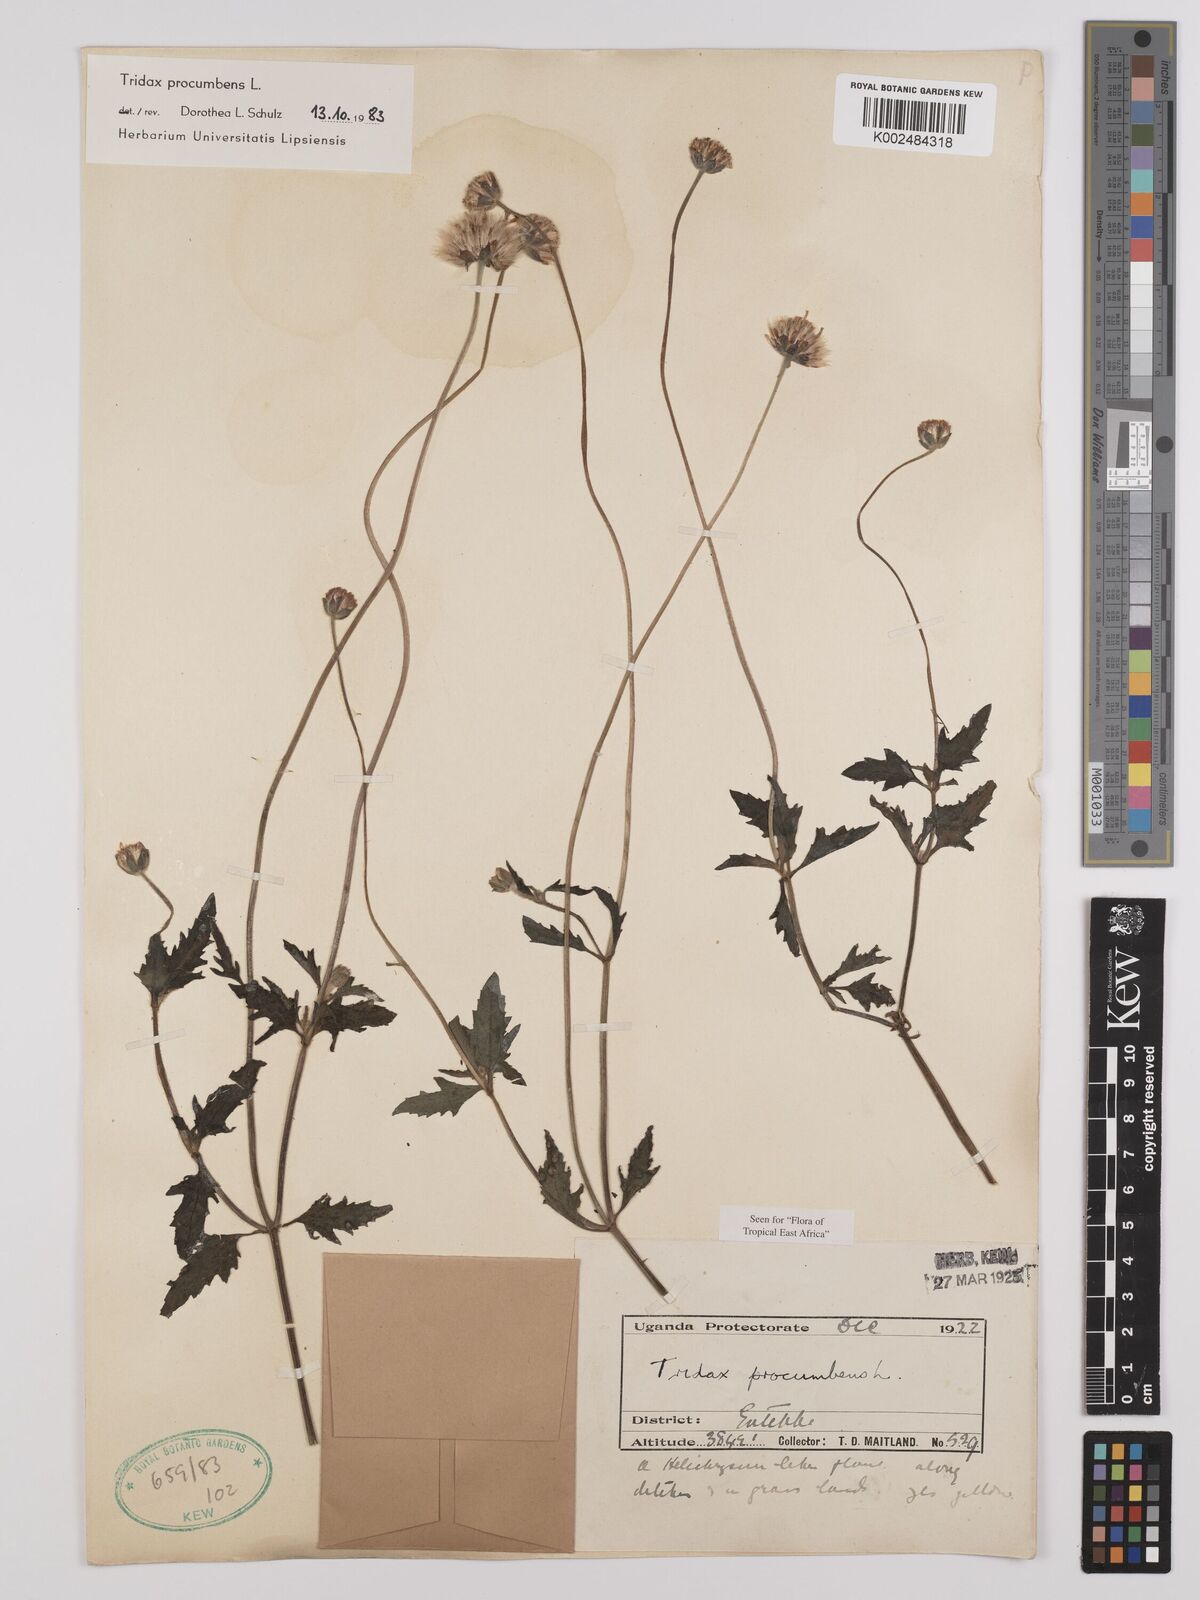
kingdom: Plantae
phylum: Tracheophyta
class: Magnoliopsida
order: Asterales
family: Asteraceae
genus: Tridax
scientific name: Tridax procumbens
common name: Coatbuttons
